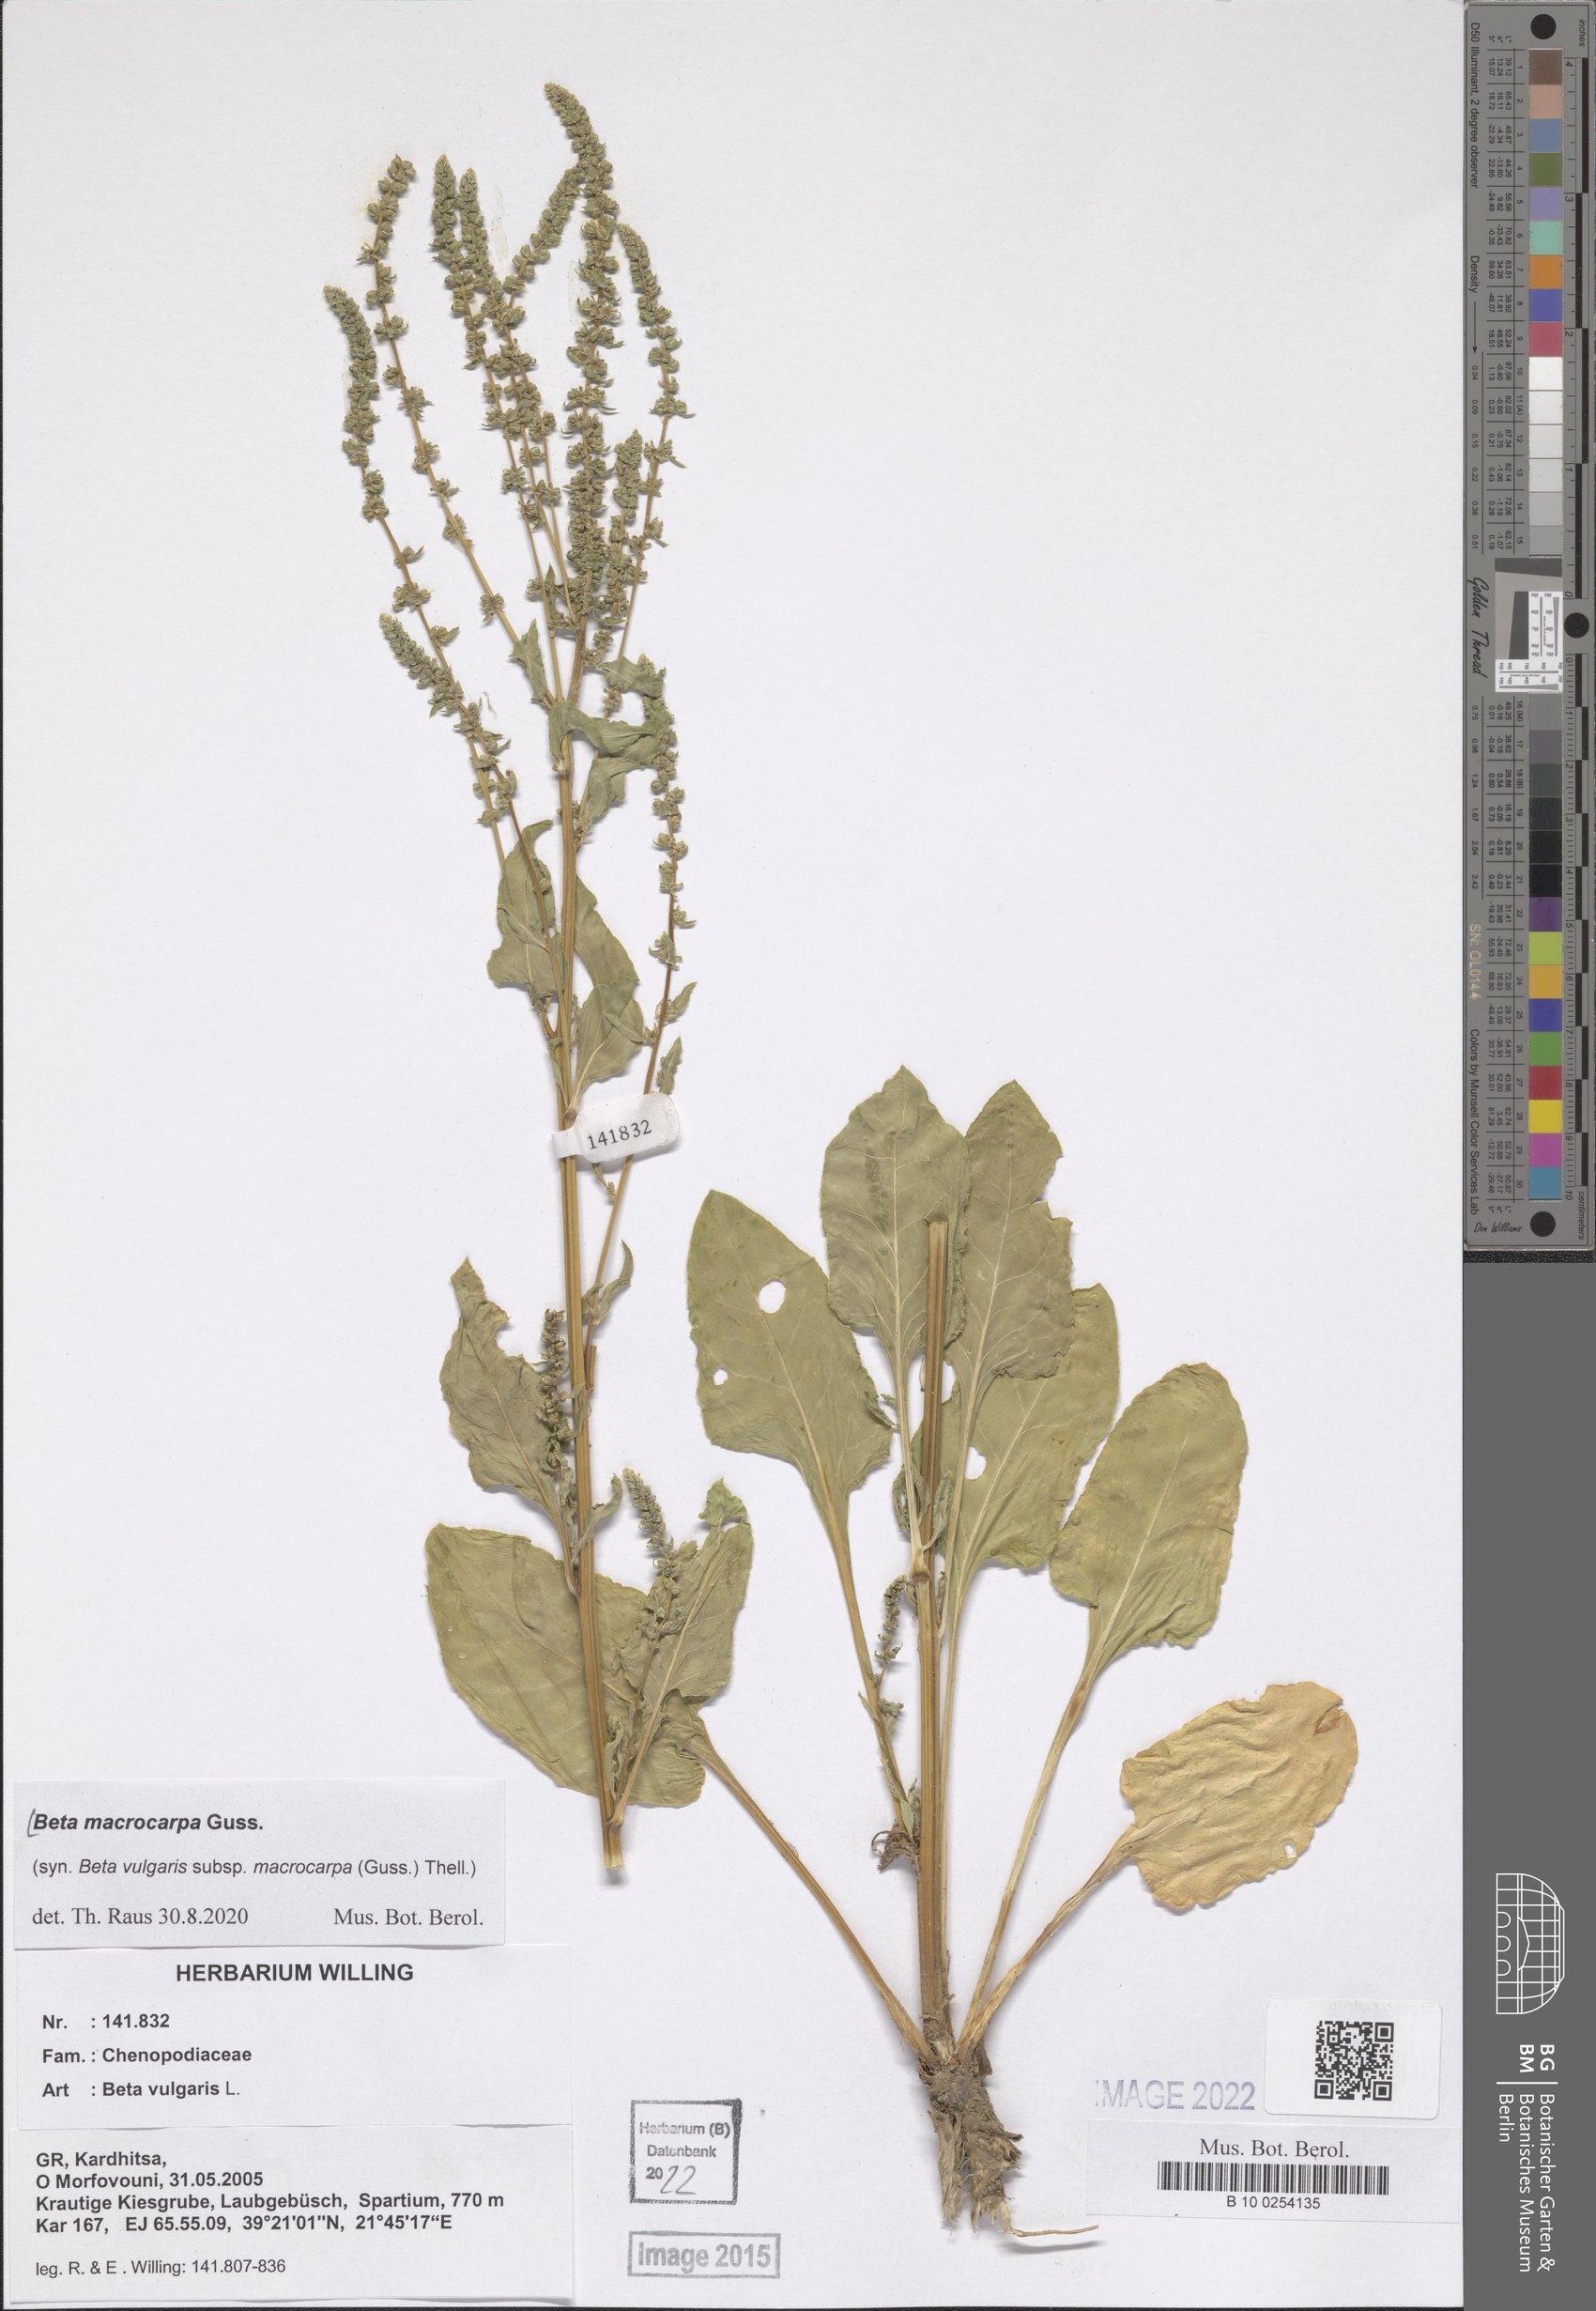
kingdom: Plantae
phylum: Tracheophyta
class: Magnoliopsida
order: Caryophyllales
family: Amaranthaceae
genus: Beta
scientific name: Beta macrocarpa
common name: Beet
